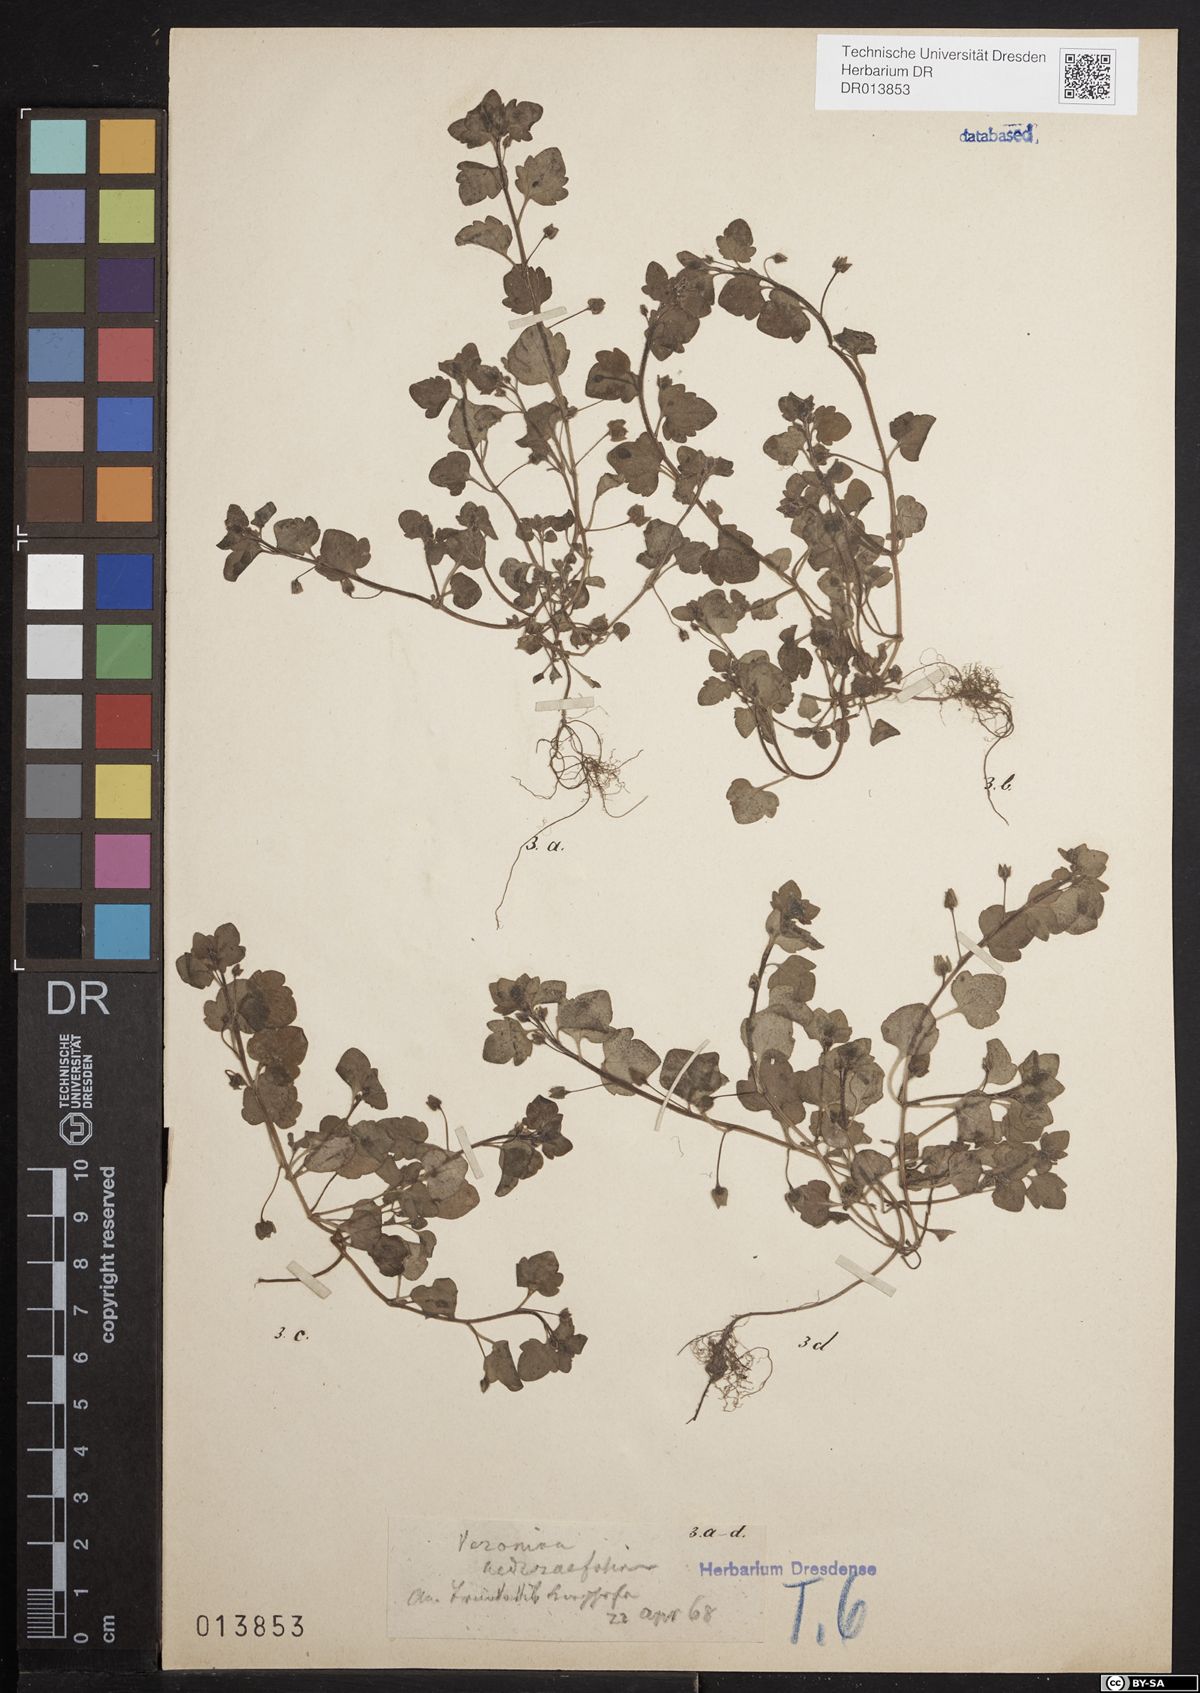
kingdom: Plantae
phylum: Tracheophyta
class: Magnoliopsida
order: Lamiales
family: Plantaginaceae
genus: Veronica
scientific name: Veronica hederifolia
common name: Ivy-leaved speedwell
